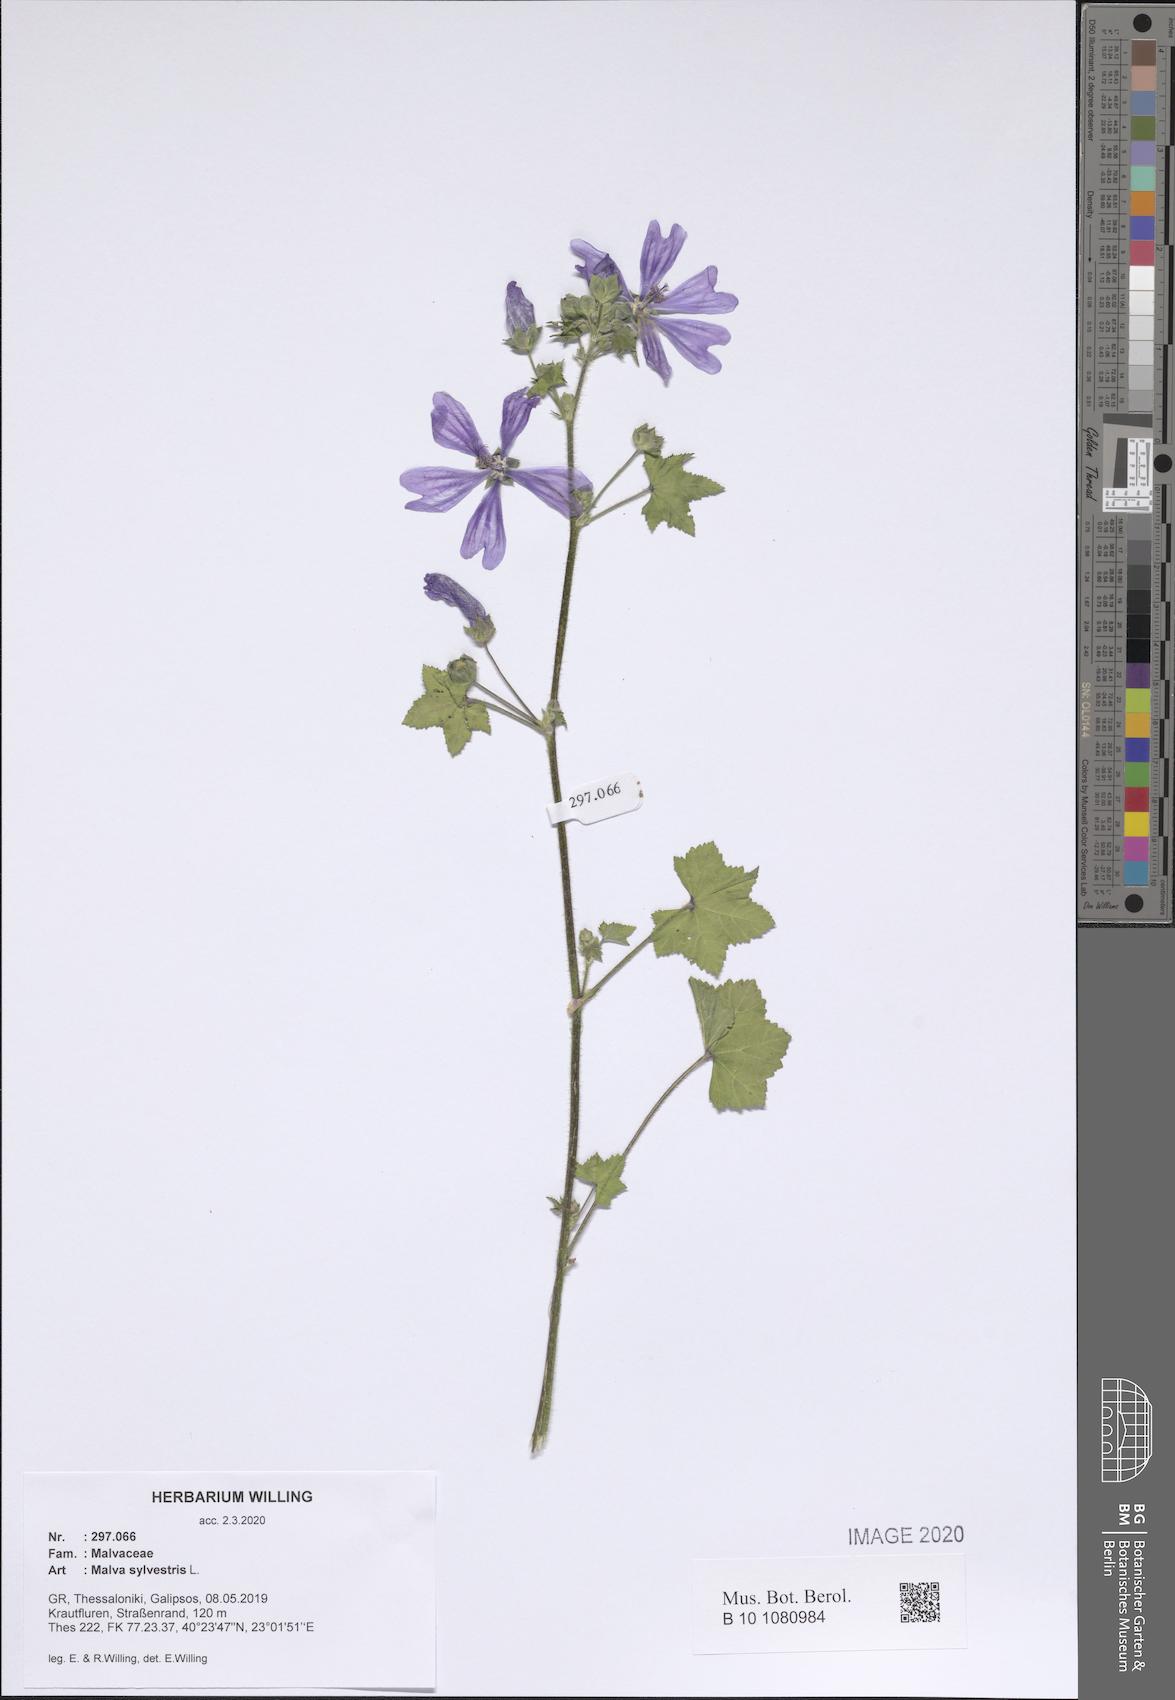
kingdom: Plantae
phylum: Tracheophyta
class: Magnoliopsida
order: Malvales
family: Malvaceae
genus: Malva
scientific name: Malva sylvestris
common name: Common mallow
